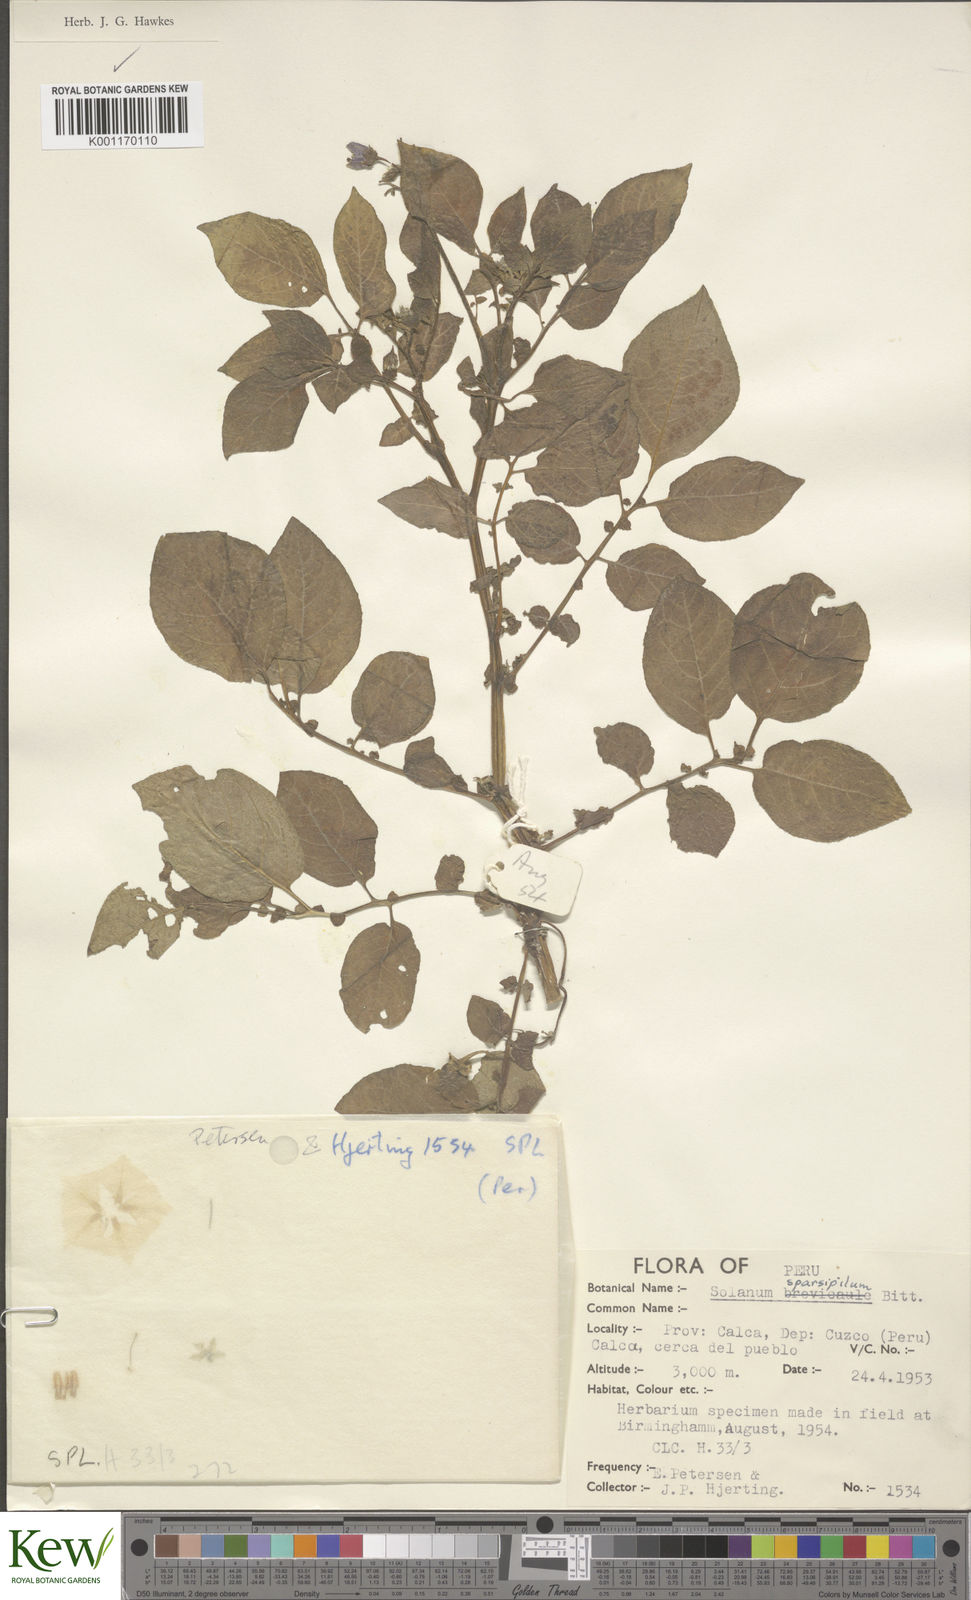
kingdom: Plantae
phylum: Tracheophyta
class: Magnoliopsida
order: Solanales
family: Solanaceae
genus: Solanum
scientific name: Solanum brevicaule
